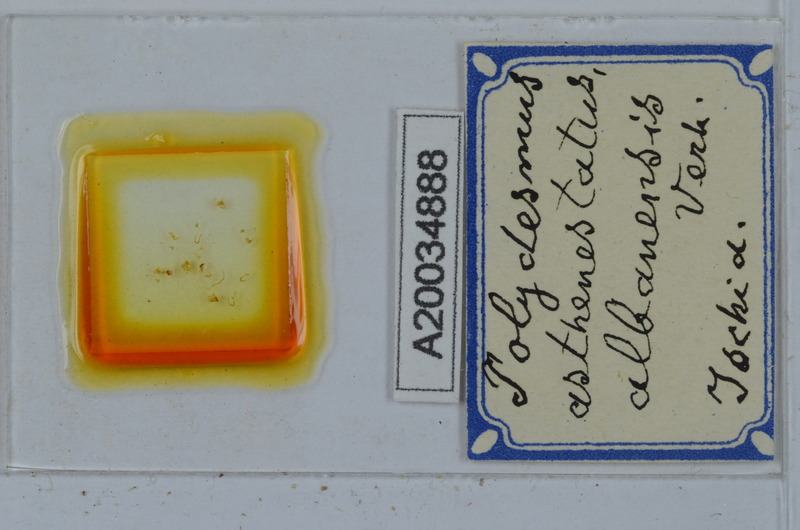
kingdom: Animalia
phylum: Arthropoda
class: Diplopoda
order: Polydesmida
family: Polydesmidae
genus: Polydesmus
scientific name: Polydesmus asthenestatus
